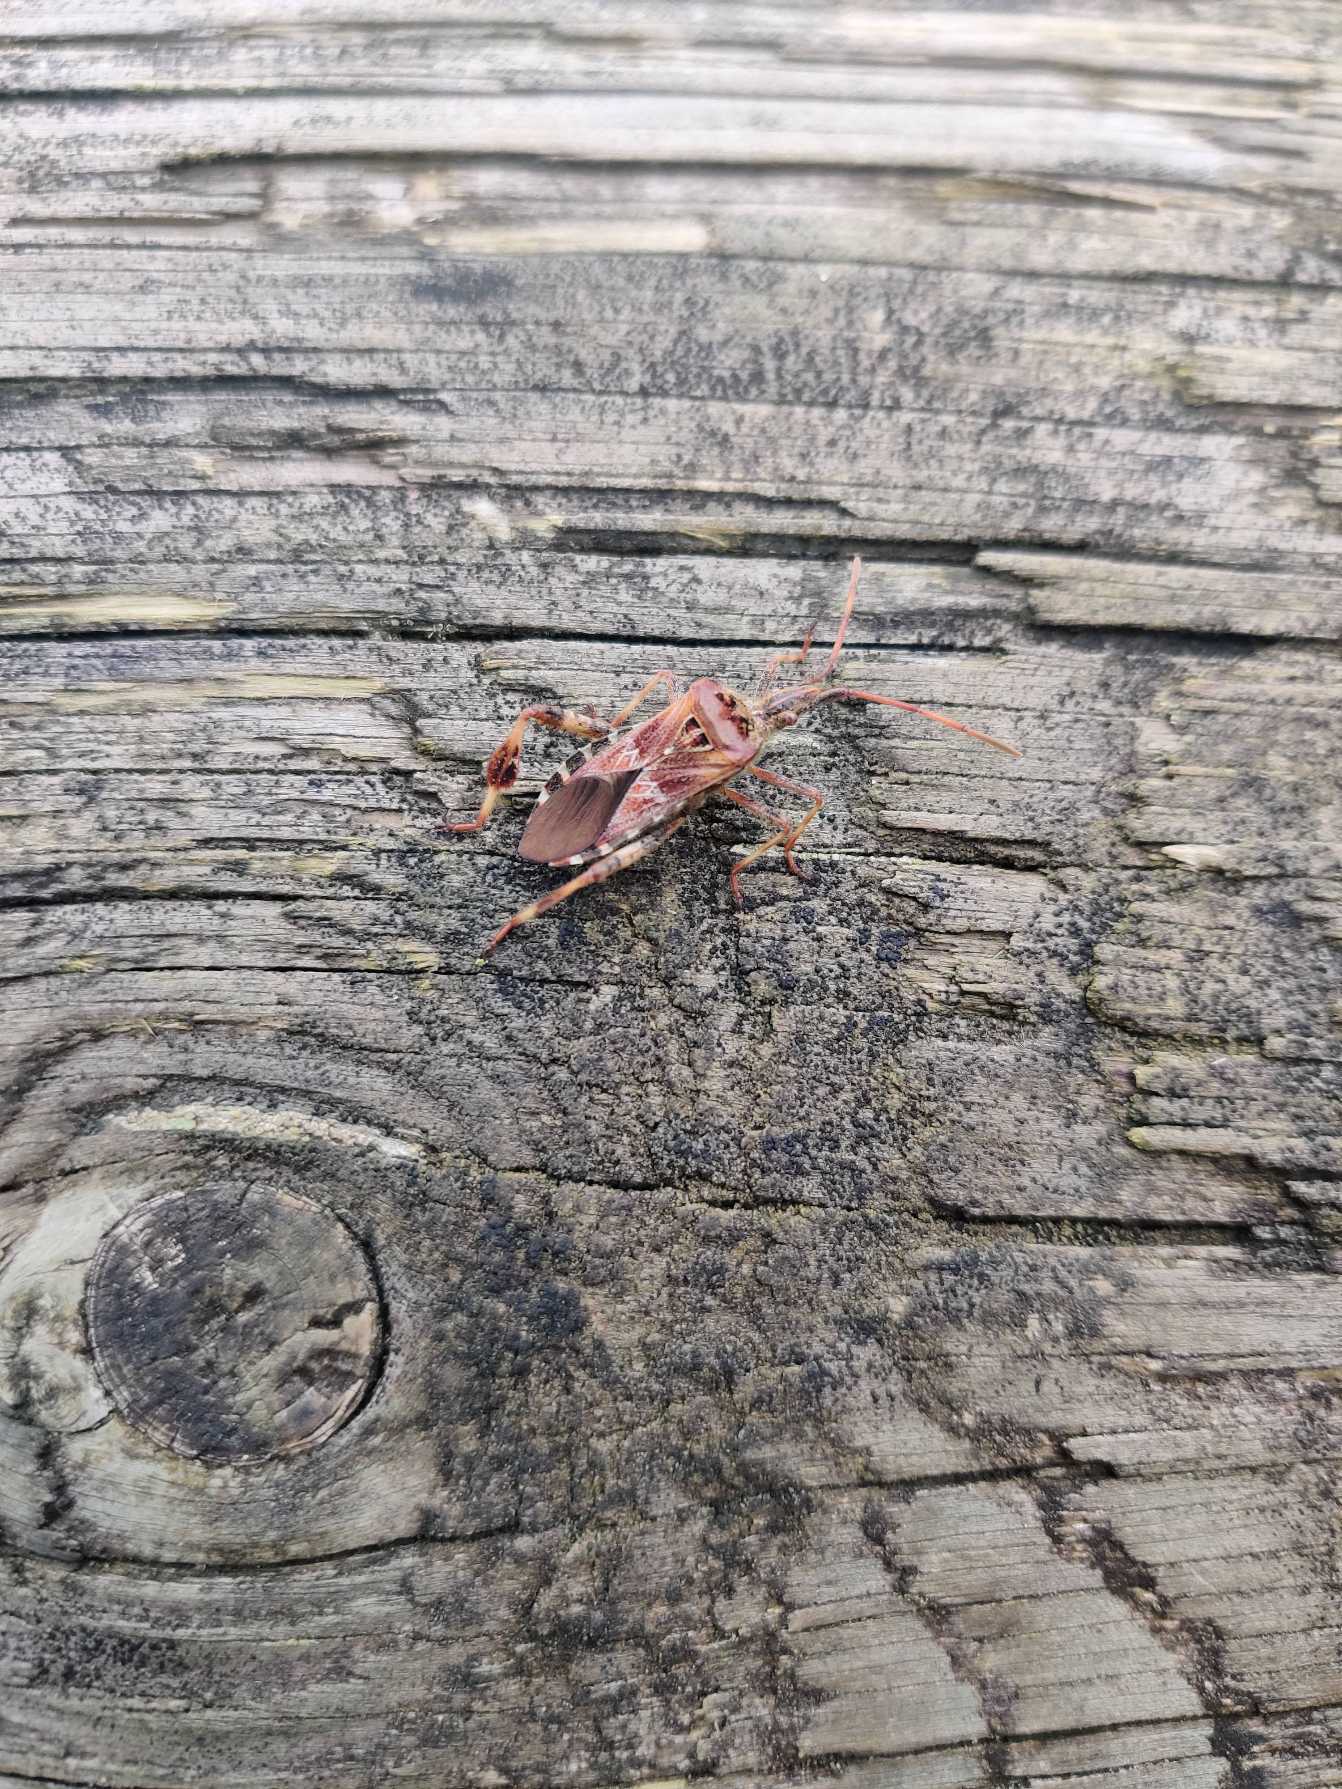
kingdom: Animalia
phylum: Arthropoda
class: Insecta
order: Hemiptera
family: Coreidae
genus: Leptoglossus
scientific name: Leptoglossus occidentalis
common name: Amerikansk fyrretæge
